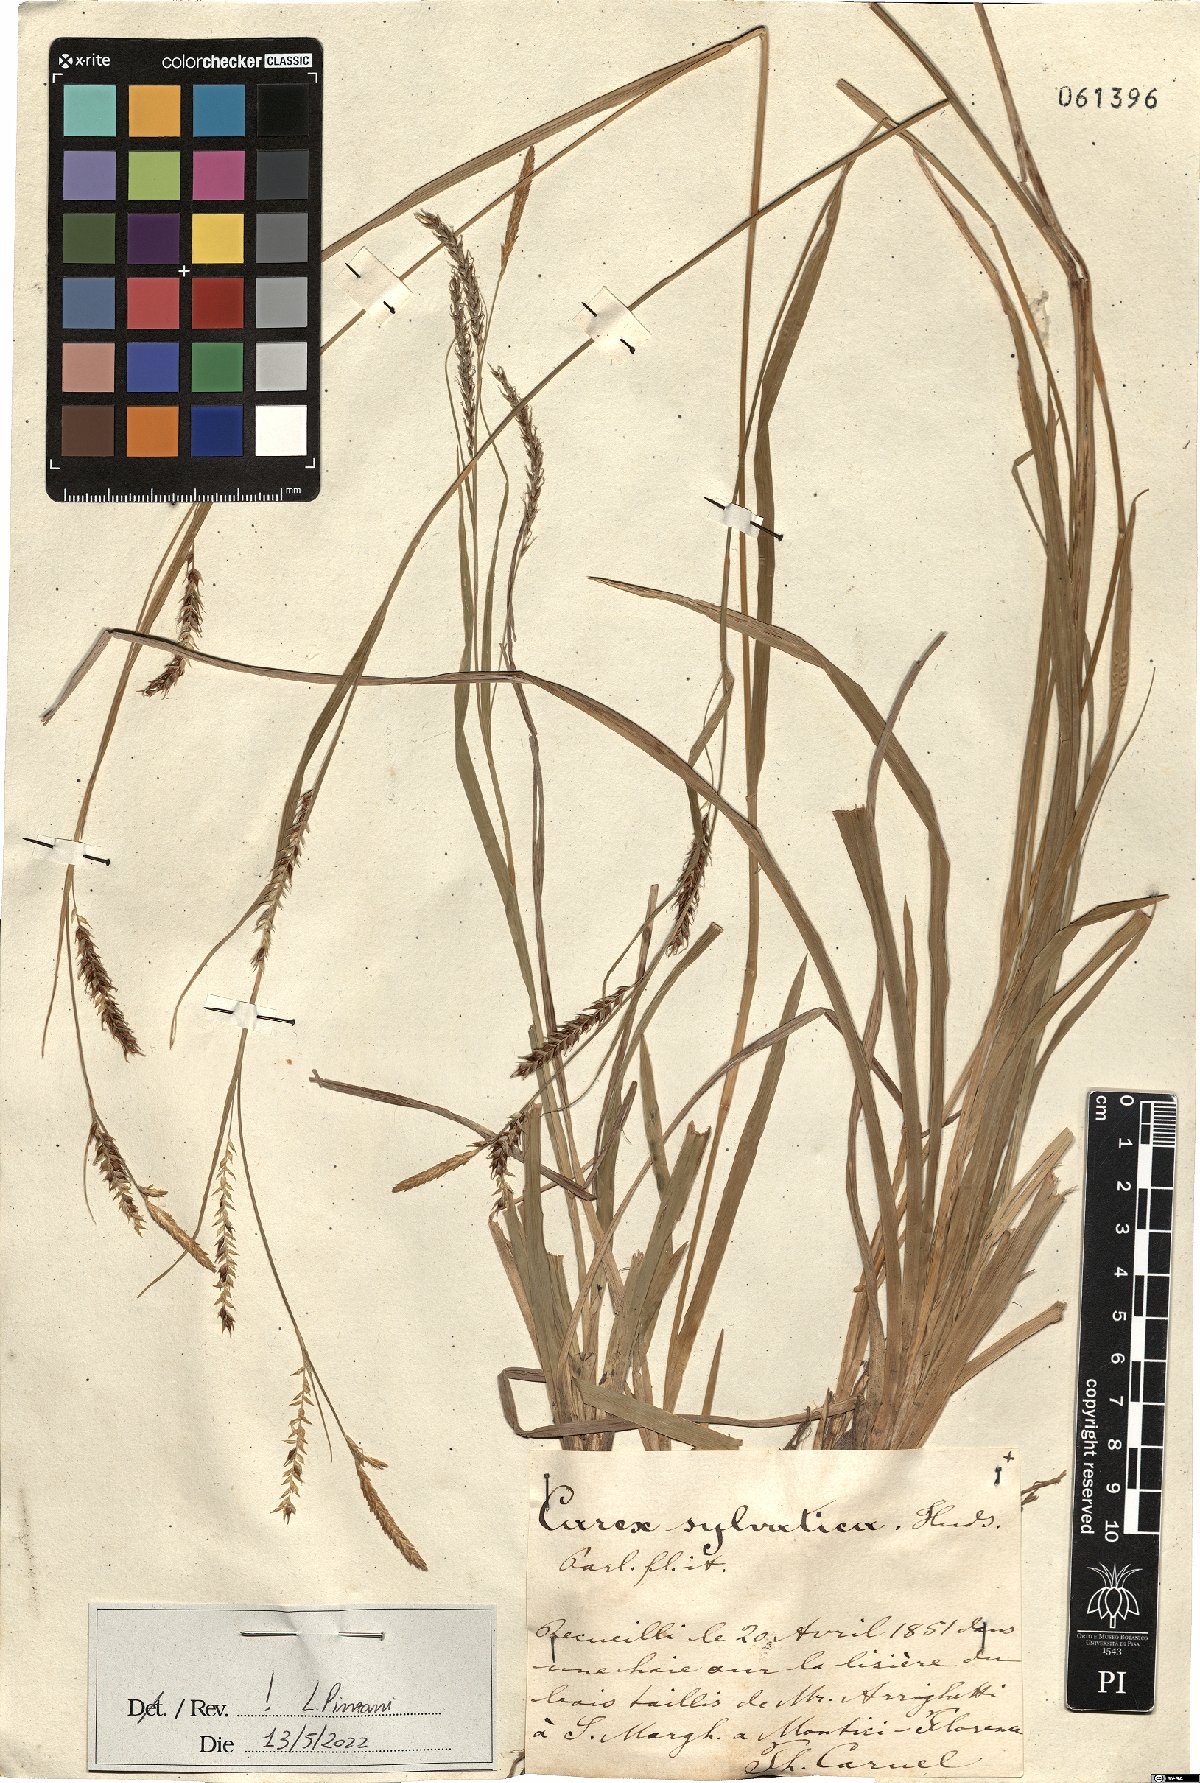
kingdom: Plantae
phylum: Tracheophyta
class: Liliopsida
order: Poales
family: Cyperaceae
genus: Carex
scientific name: Carex sylvatica
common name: Wood-sedge
